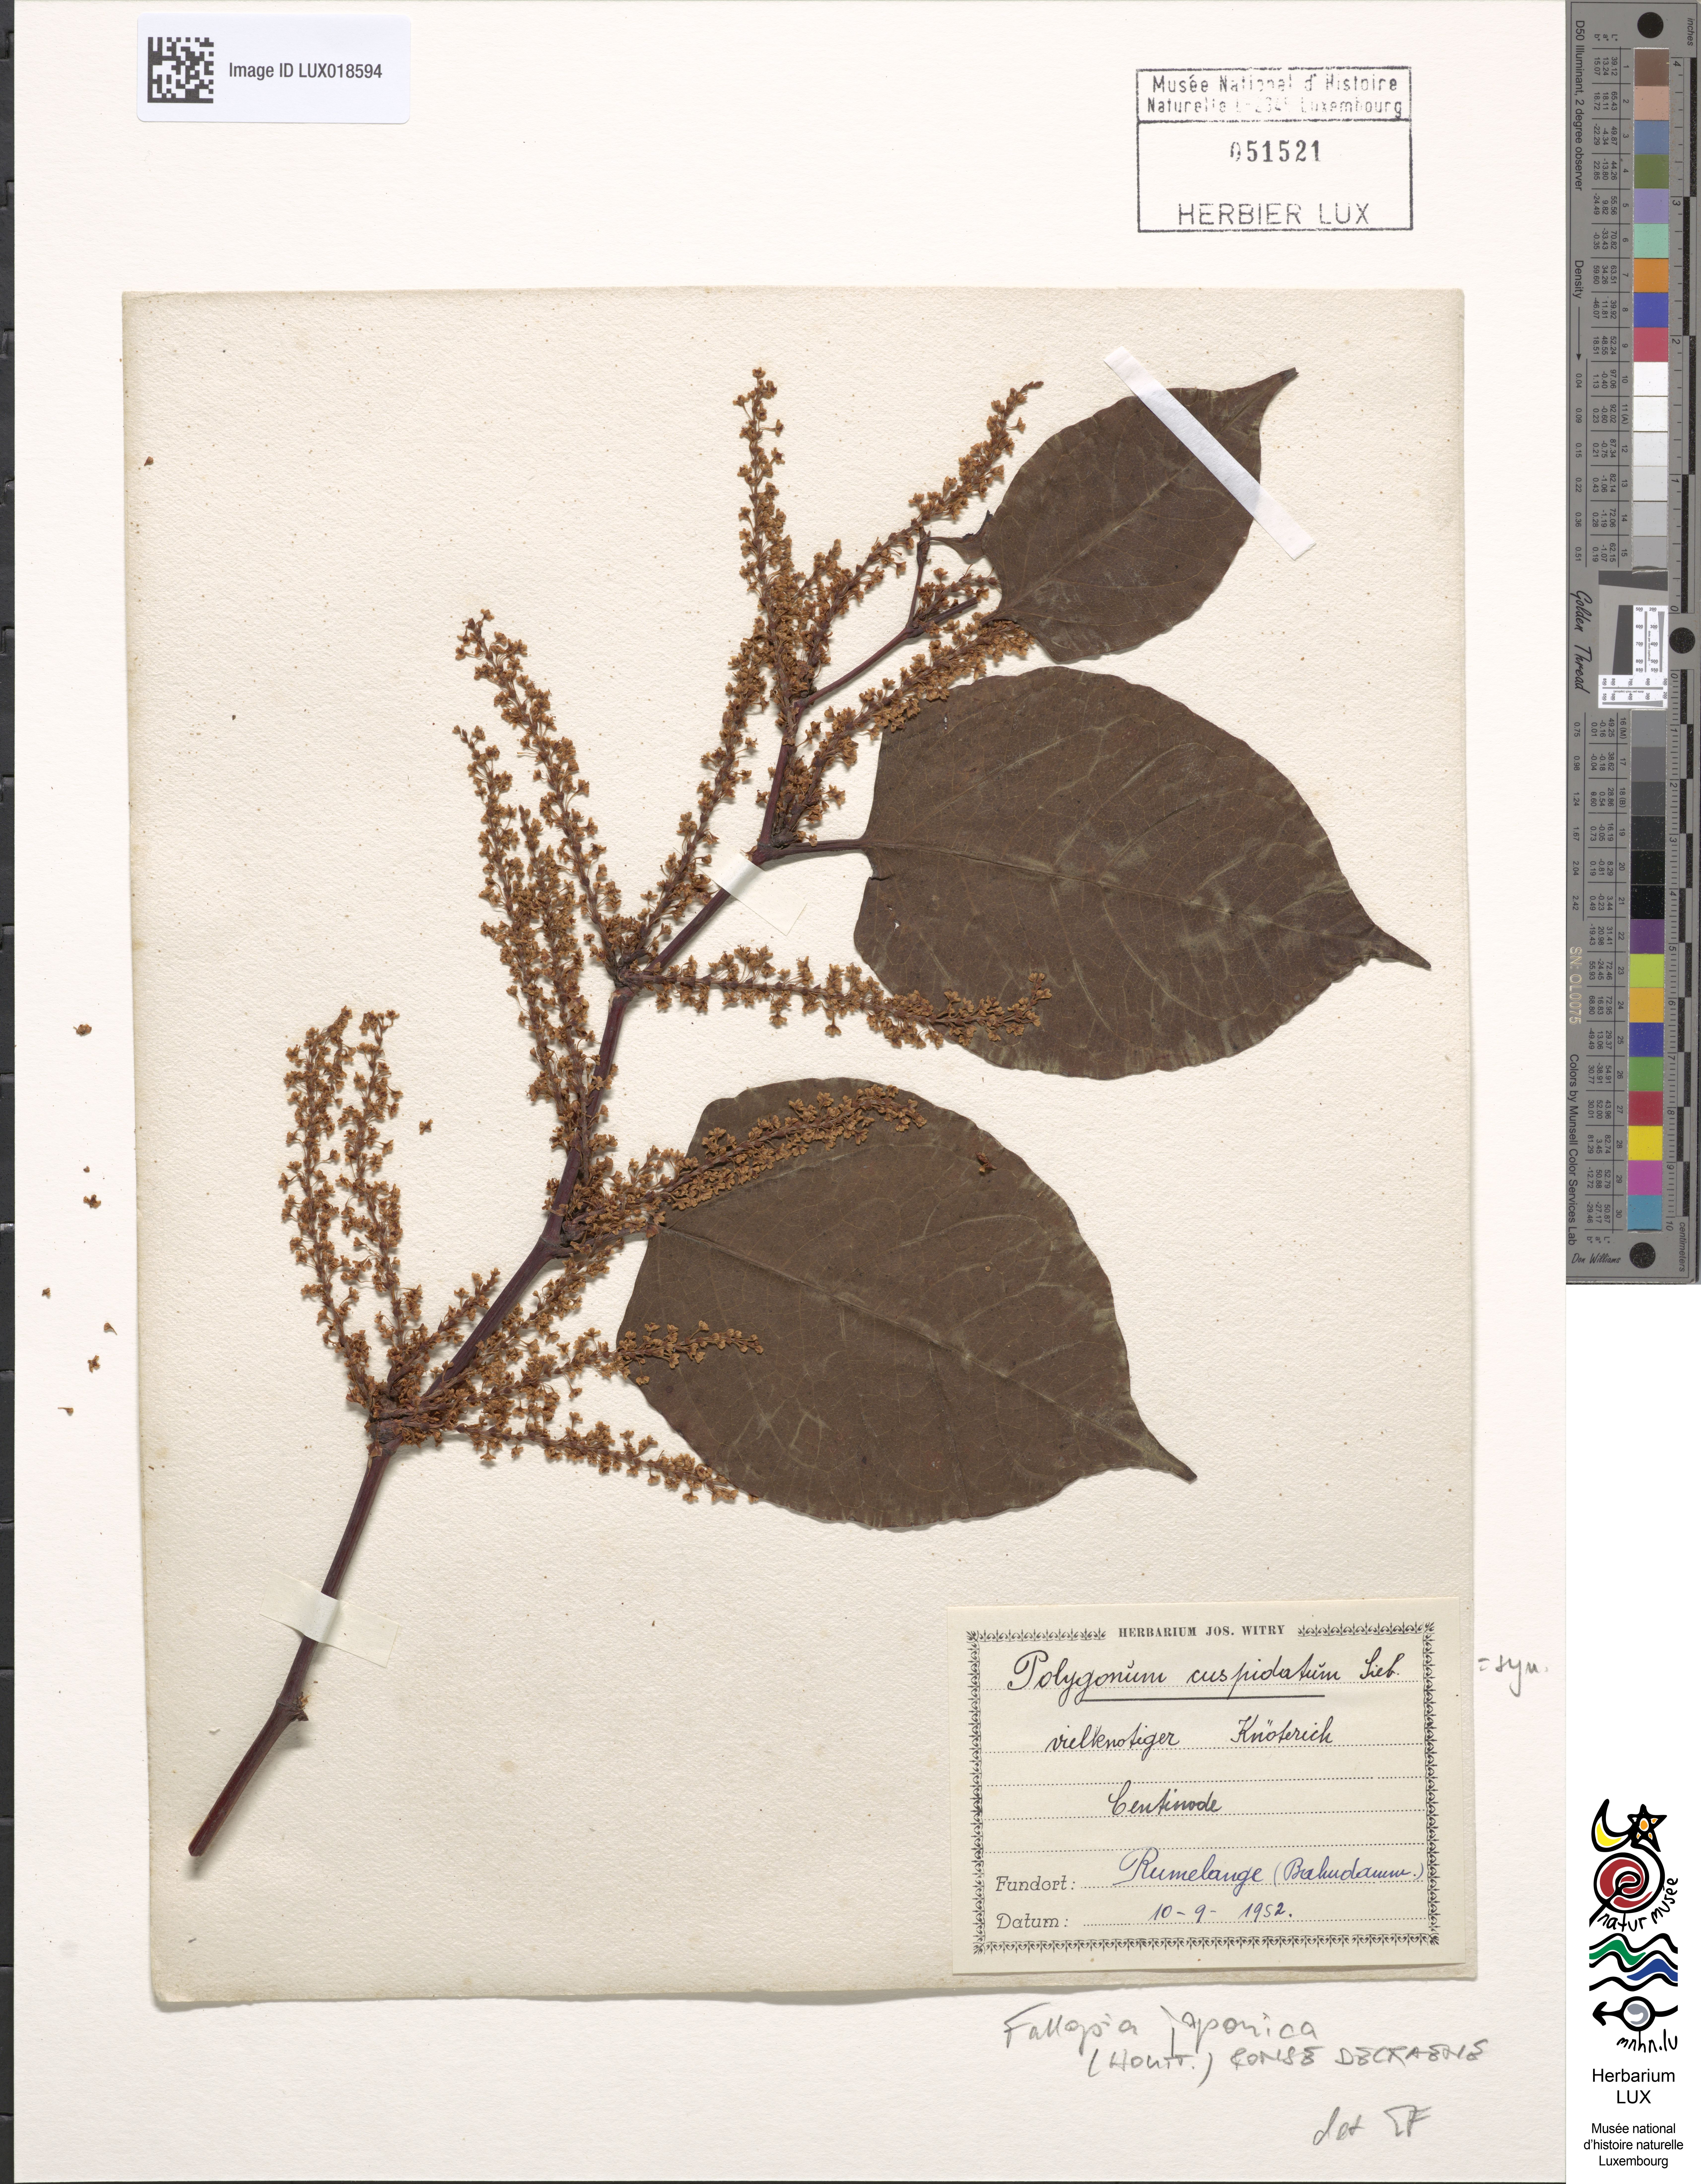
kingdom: Plantae
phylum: Tracheophyta
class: Magnoliopsida
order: Caryophyllales
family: Polygonaceae
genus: Reynoutria
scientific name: Reynoutria japonica
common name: Japanese knotweed
